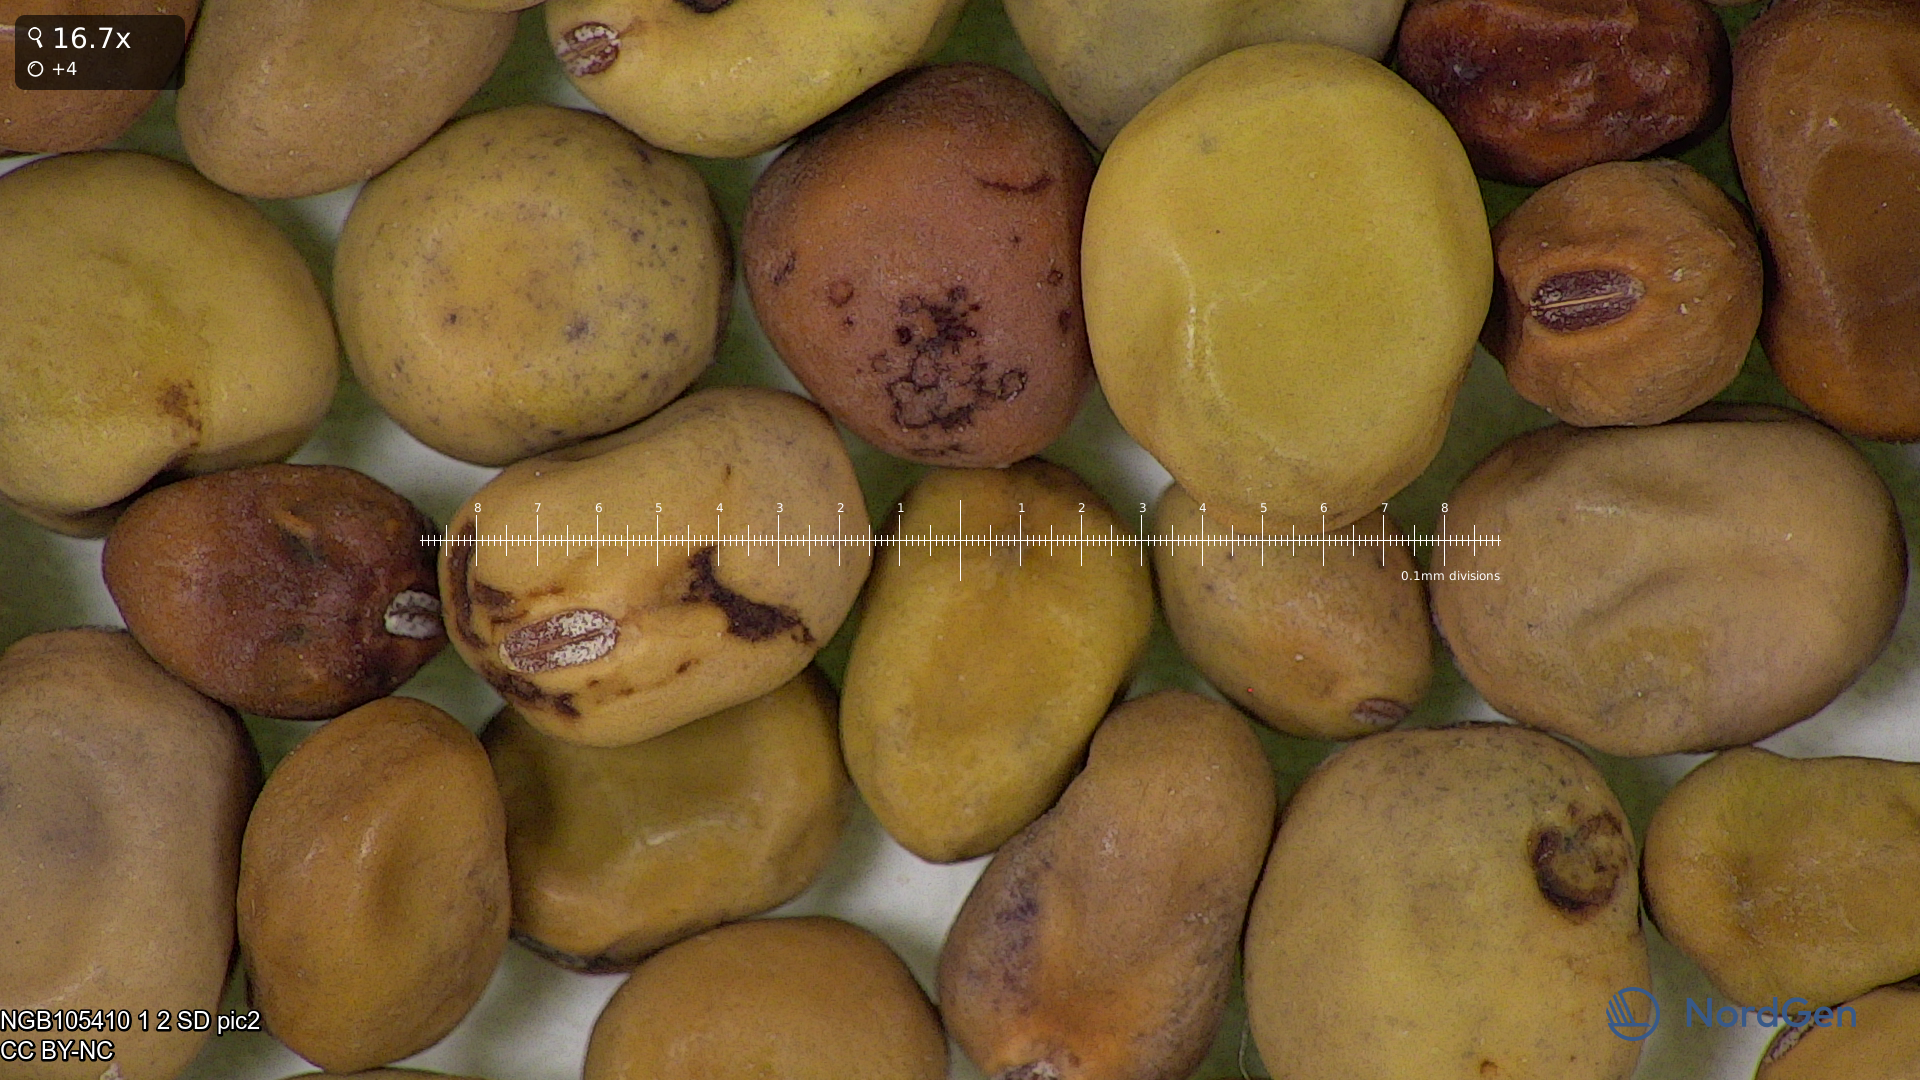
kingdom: Plantae
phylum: Tracheophyta
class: Magnoliopsida
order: Fabales
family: Fabaceae
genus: Lathyrus
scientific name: Lathyrus oleraceus
